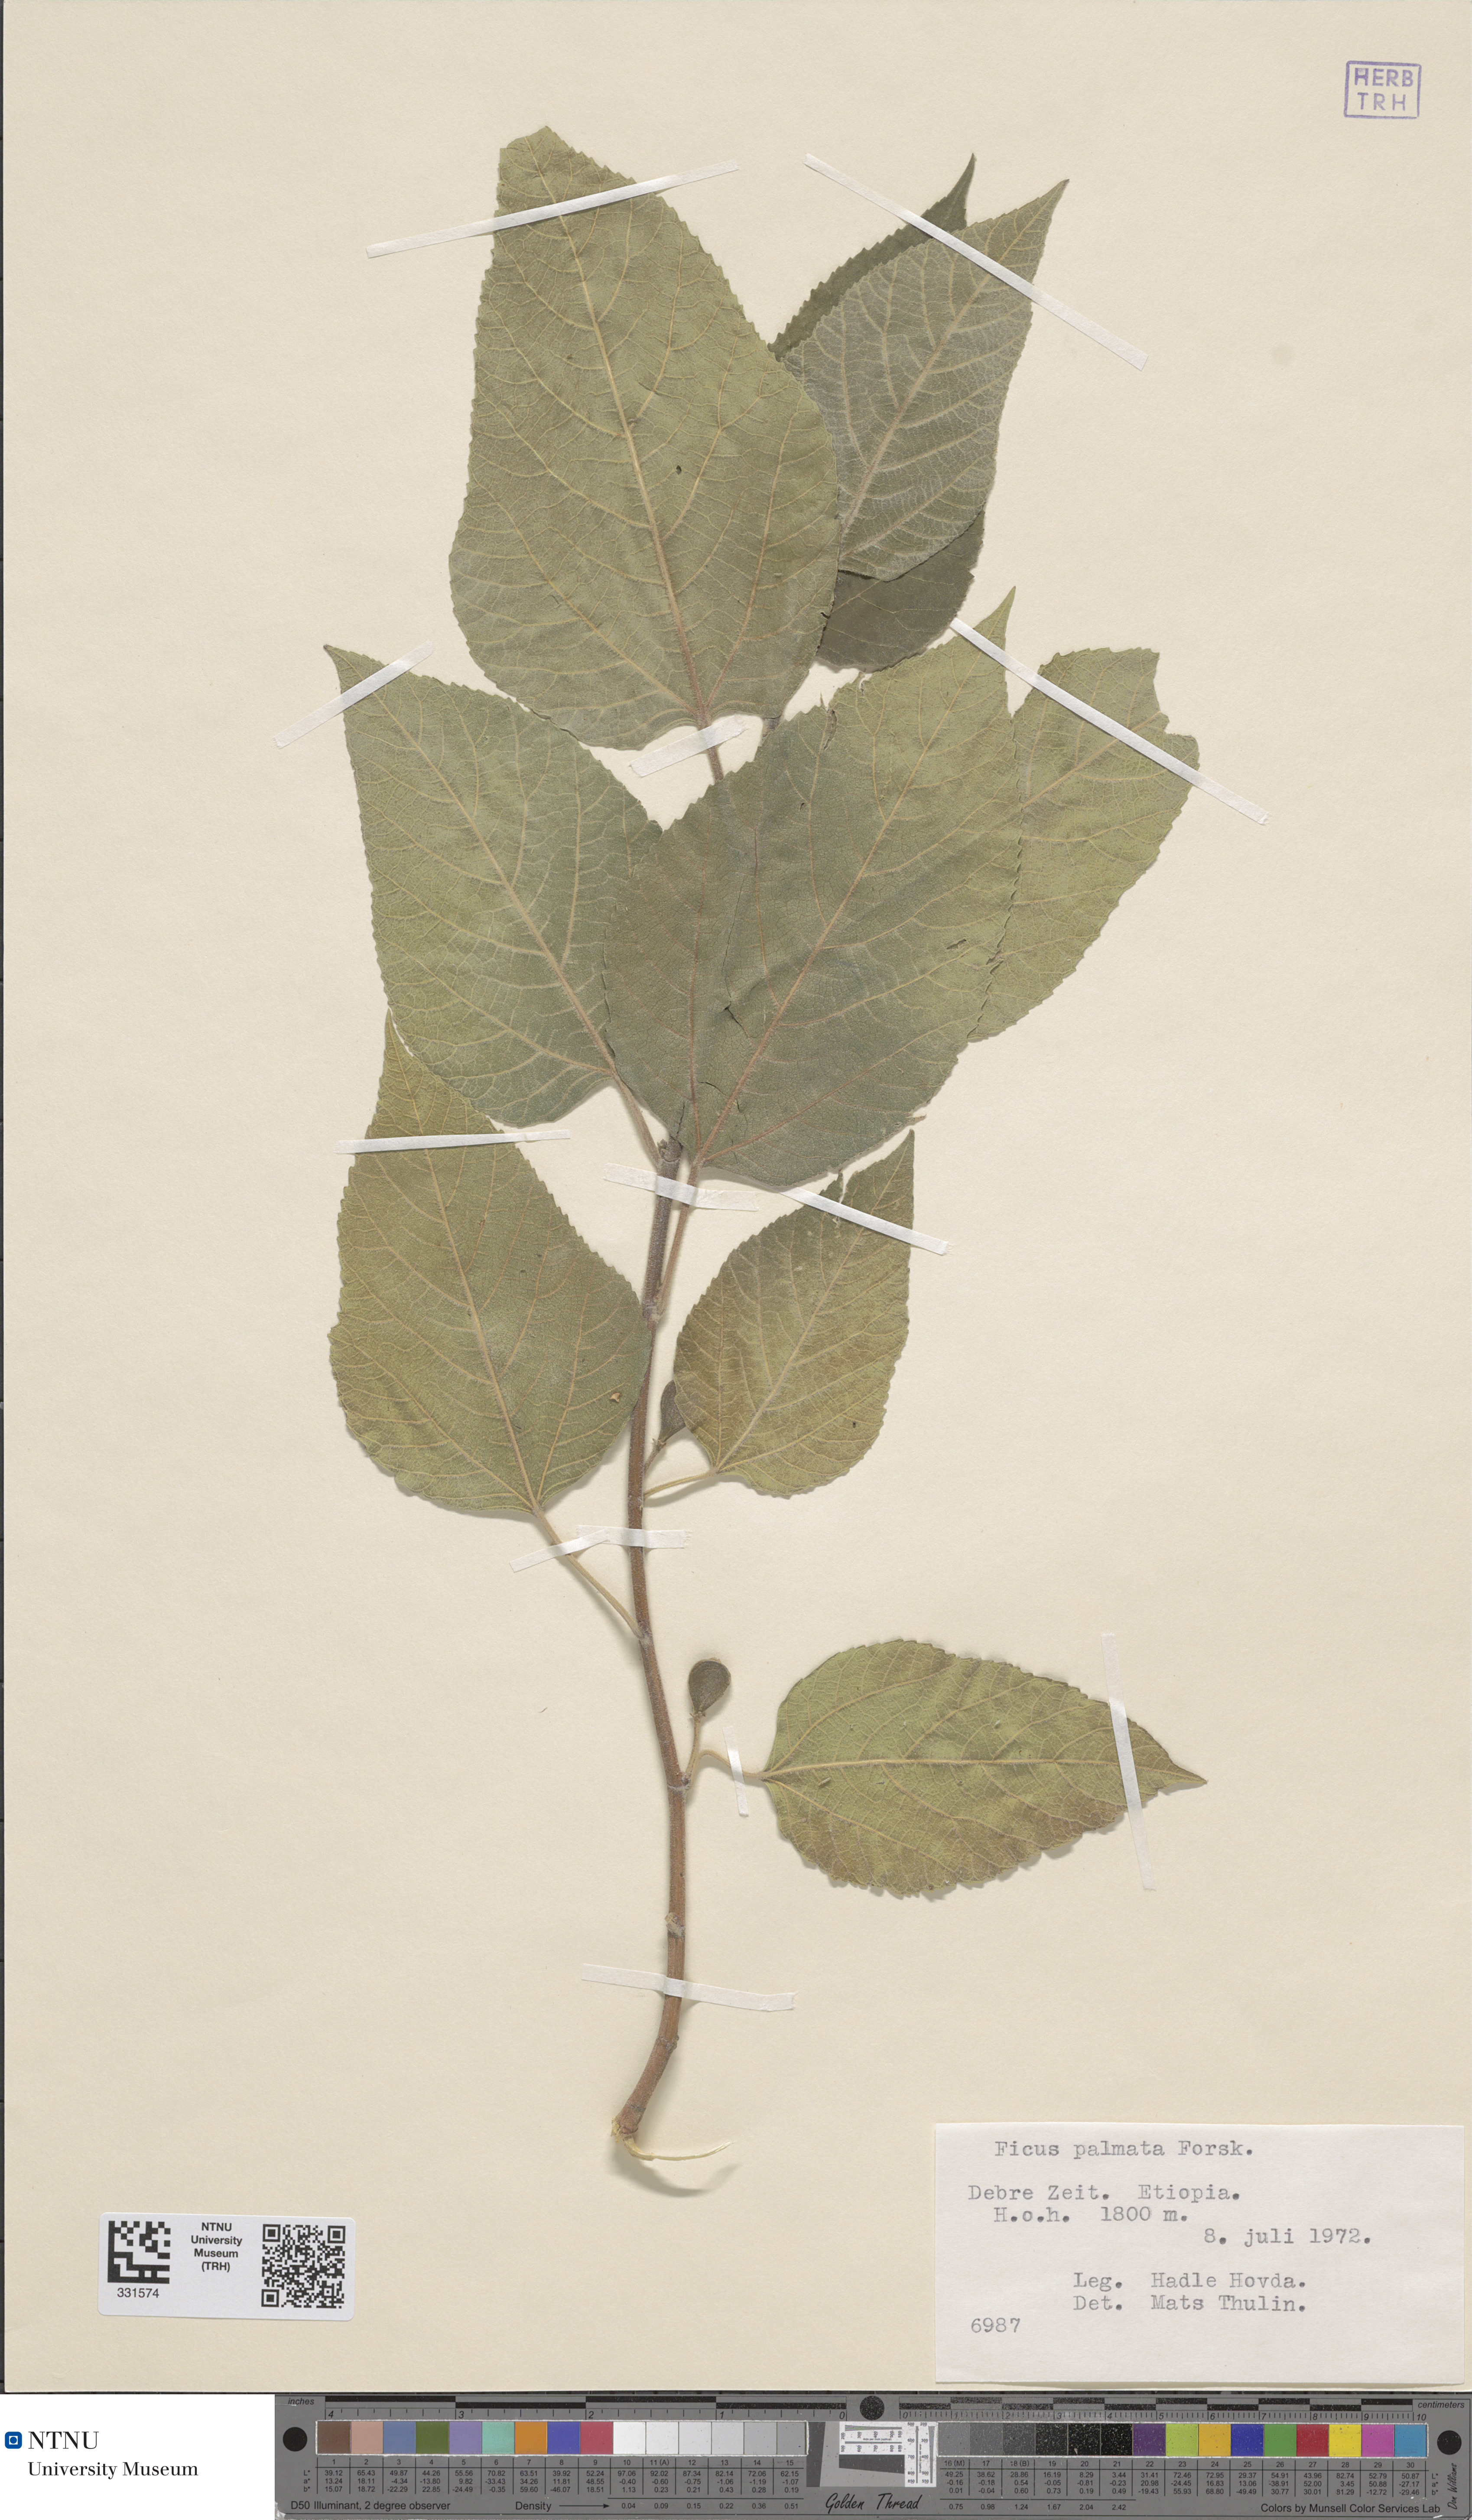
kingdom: Plantae
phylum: Tracheophyta
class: Magnoliopsida
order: Rosales
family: Moraceae
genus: Ficus
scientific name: Ficus palmata
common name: Punjab fig
